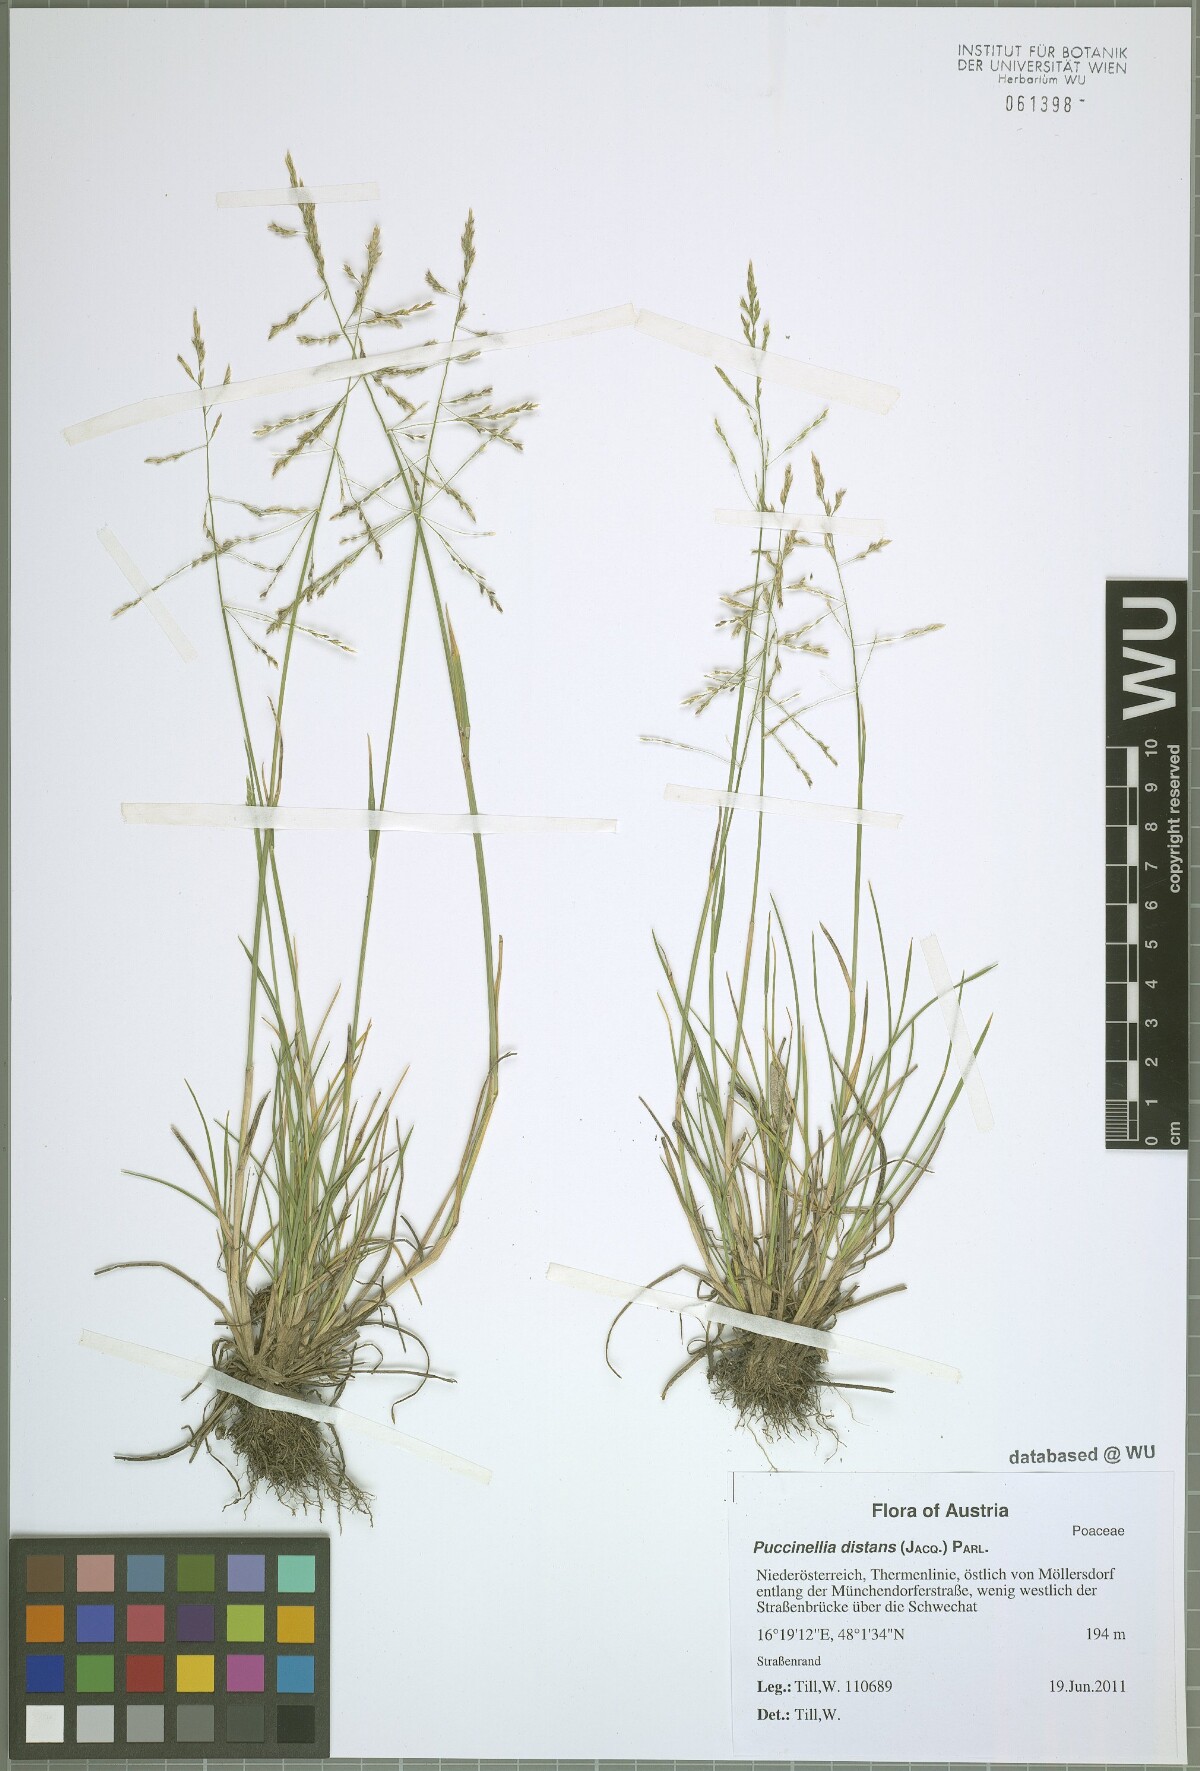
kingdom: Plantae
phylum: Tracheophyta
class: Liliopsida
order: Poales
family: Poaceae
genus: Puccinellia
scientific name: Puccinellia distans
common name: Weeping alkaligrass
